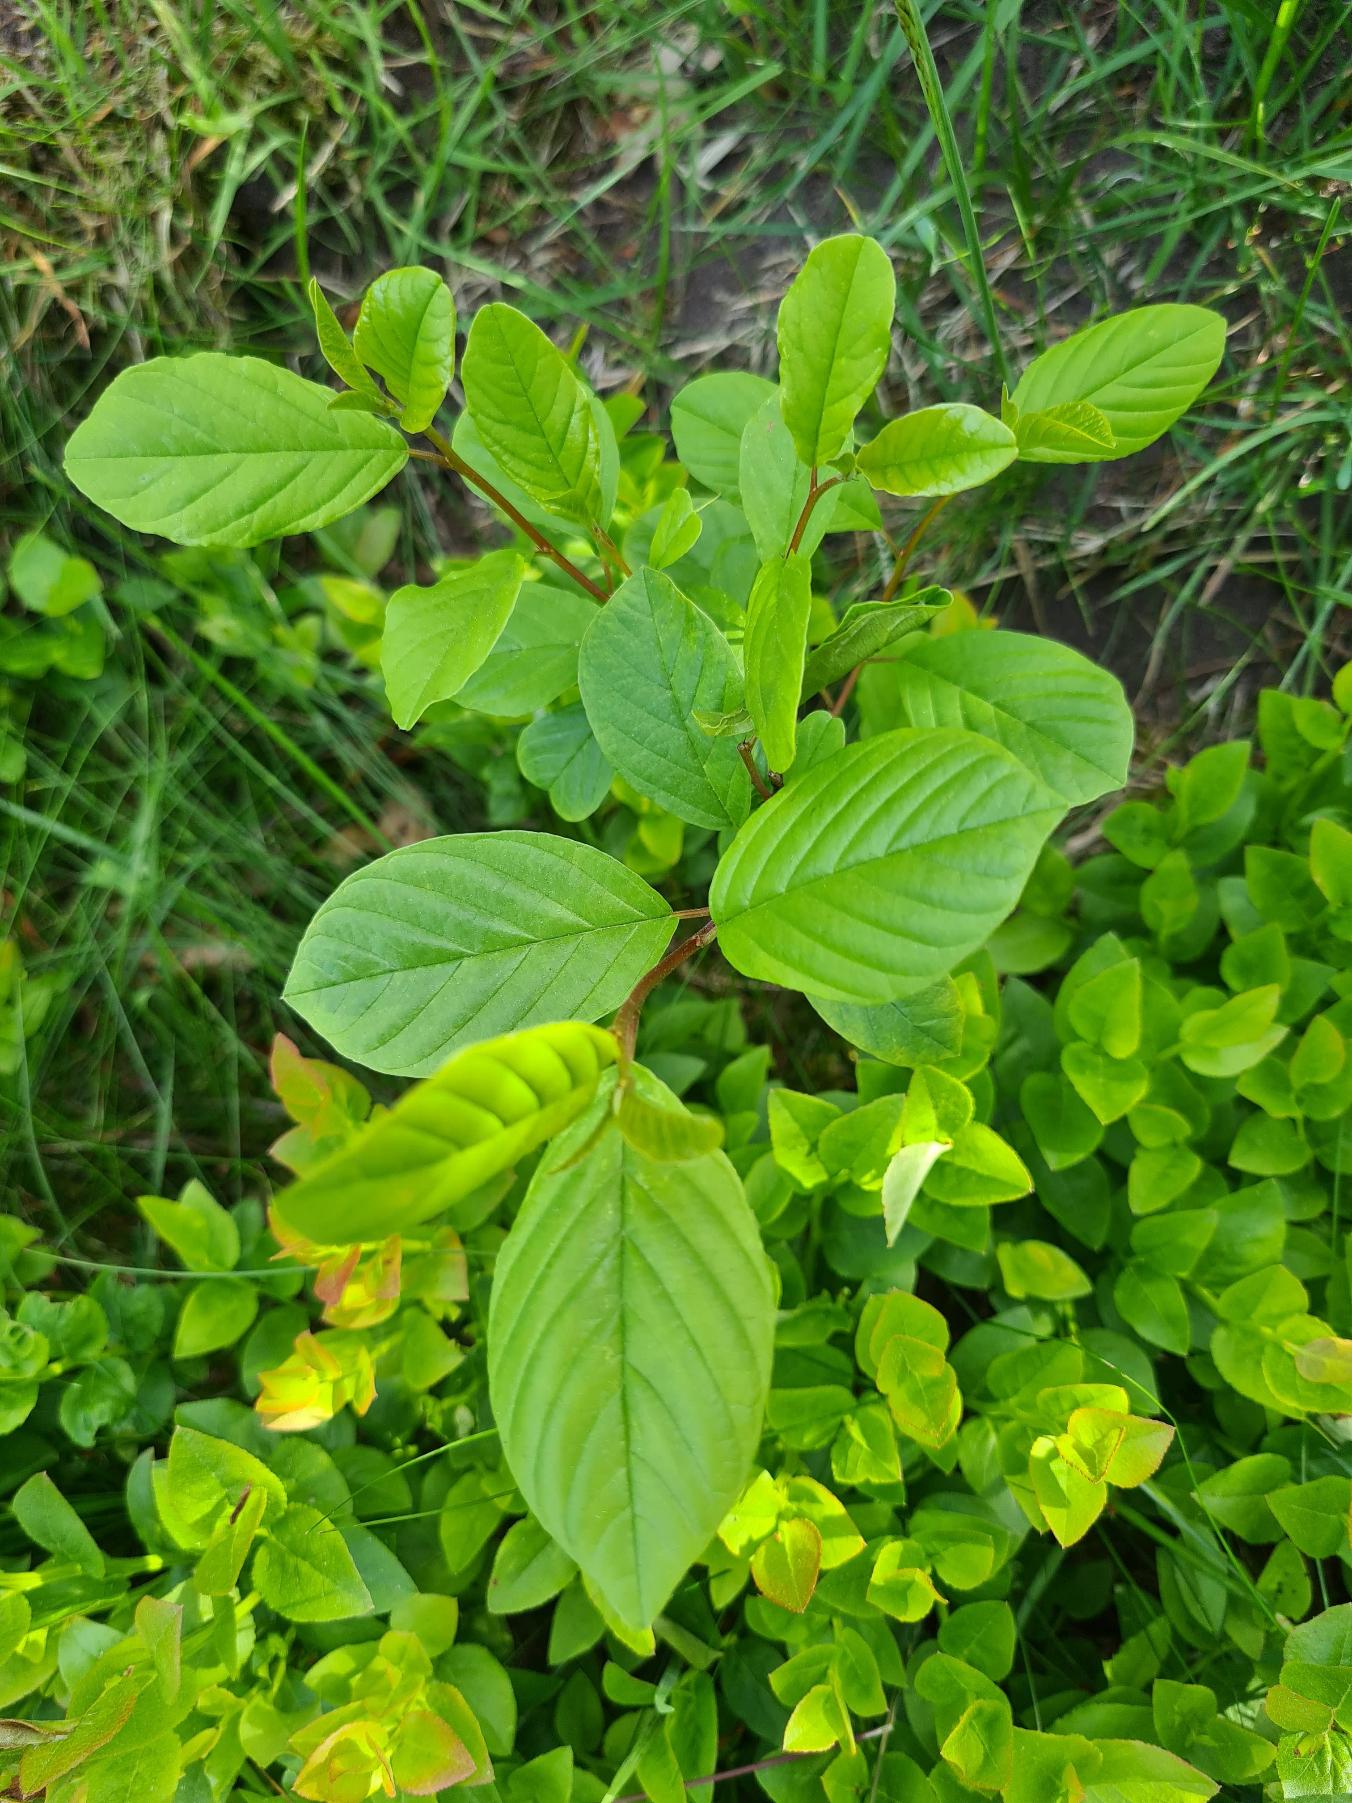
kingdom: Plantae
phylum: Tracheophyta
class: Magnoliopsida
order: Rosales
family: Rhamnaceae
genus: Frangula
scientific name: Frangula alnus
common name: Tørst
